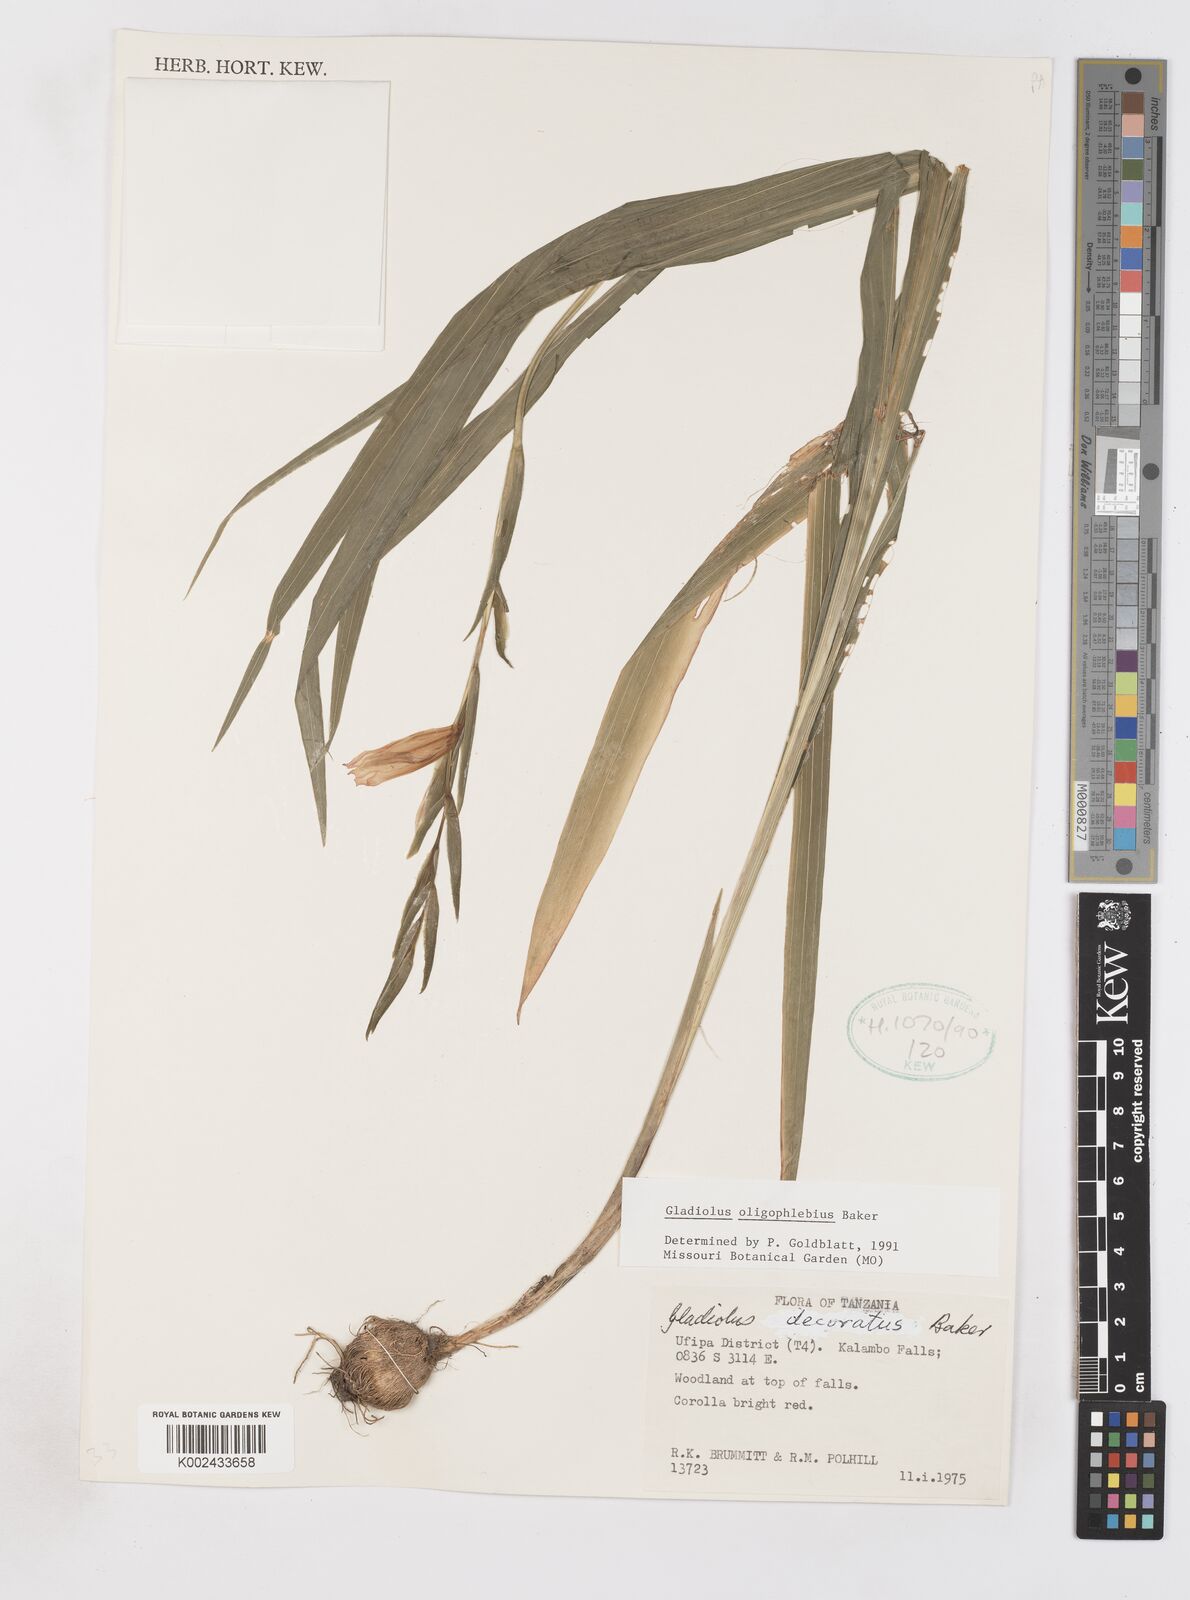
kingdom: Plantae
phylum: Tracheophyta
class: Liliopsida
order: Asparagales
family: Iridaceae
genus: Gladiolus
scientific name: Gladiolus oligophlebius
